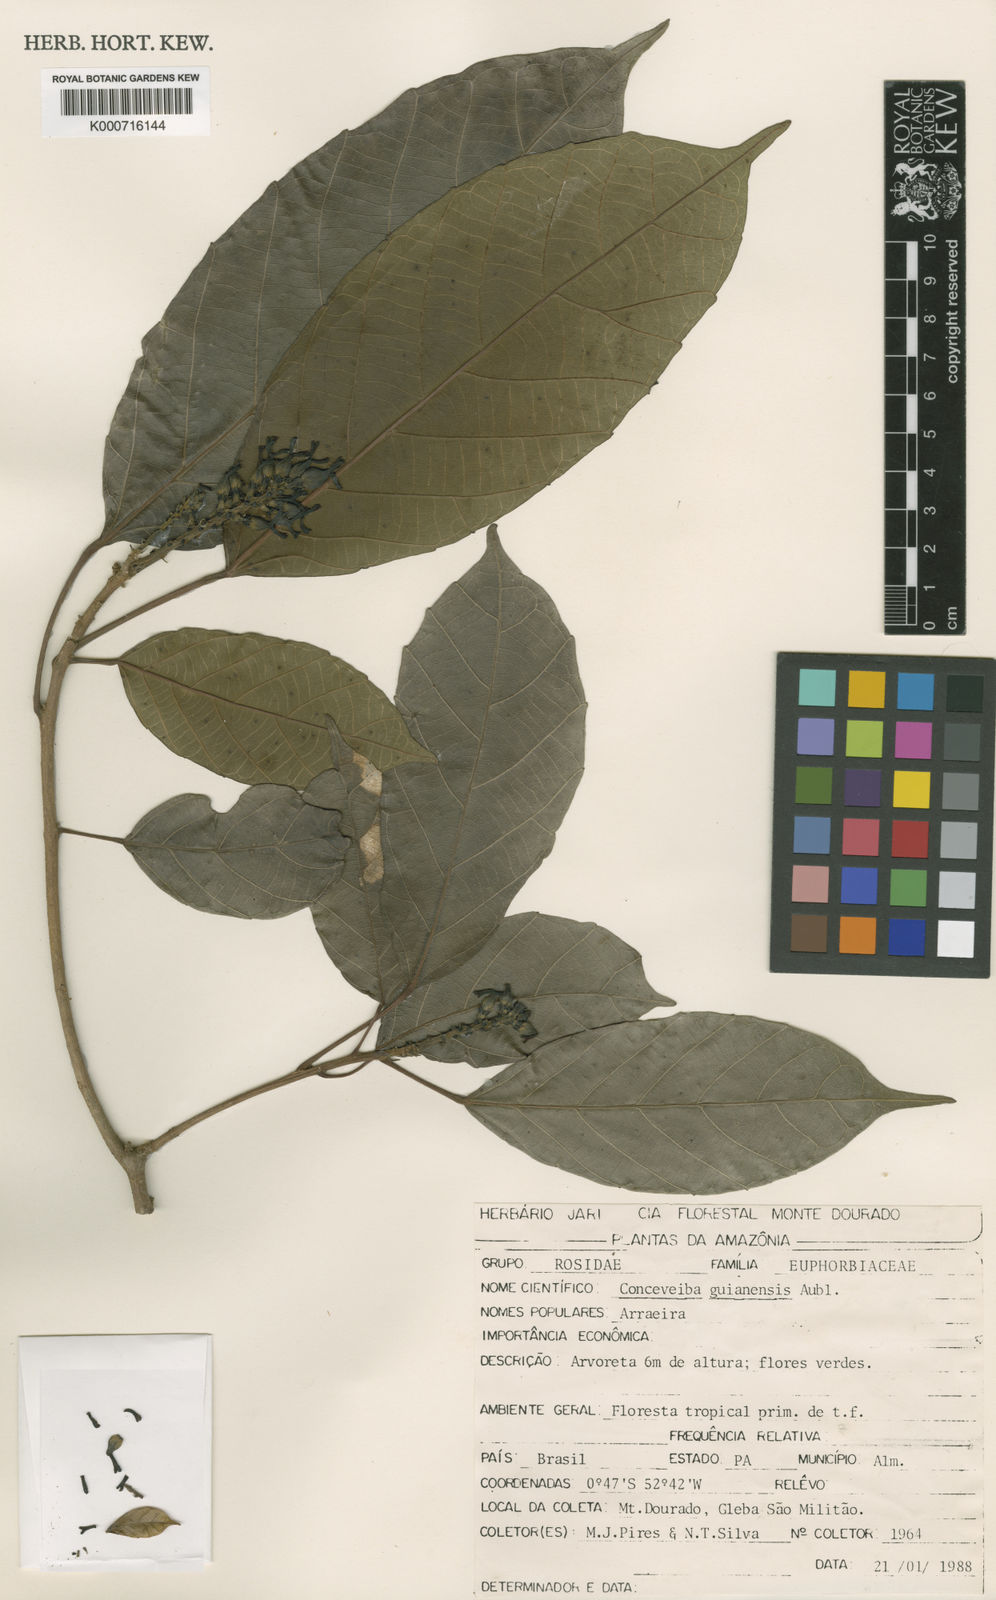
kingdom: Plantae
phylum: Tracheophyta
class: Magnoliopsida
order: Malpighiales
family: Euphorbiaceae
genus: Conceveiba
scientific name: Conceveiba guianensis
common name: Poatoru
